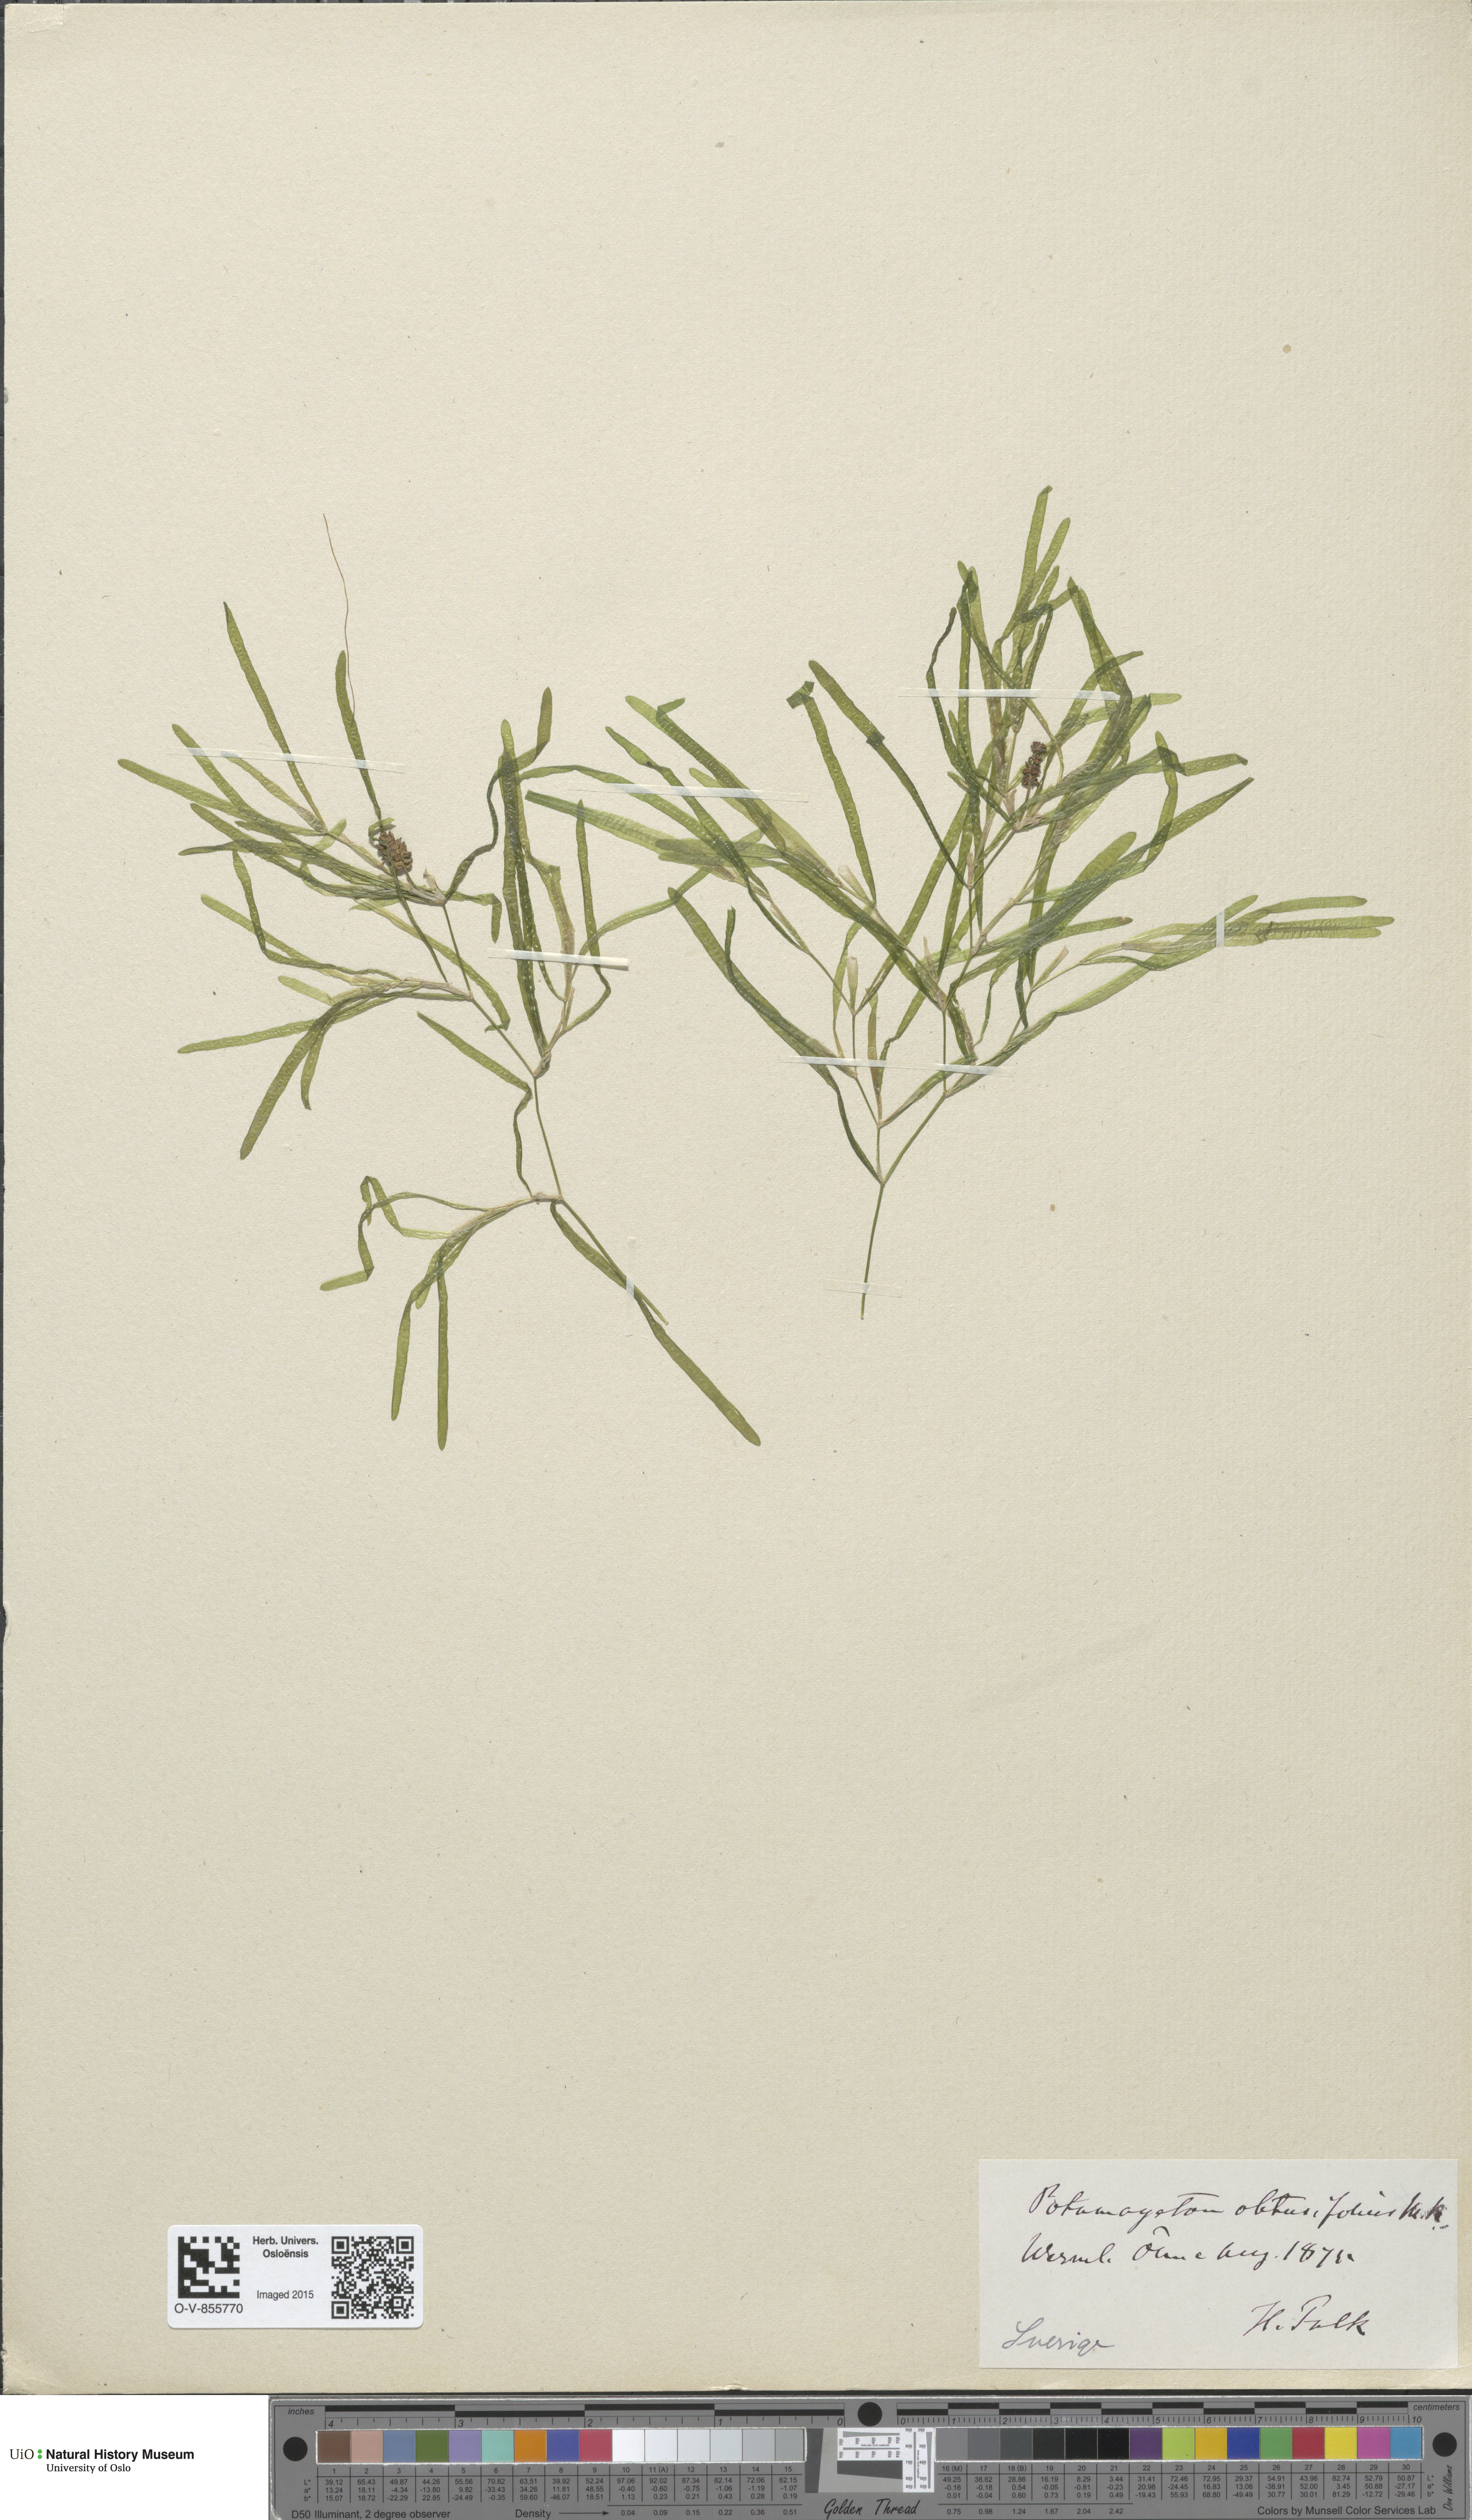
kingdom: Plantae
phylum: Tracheophyta
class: Liliopsida
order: Alismatales
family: Potamogetonaceae
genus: Potamogeton
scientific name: Potamogeton obtusifolius
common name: Blunt-leaved pondweed
